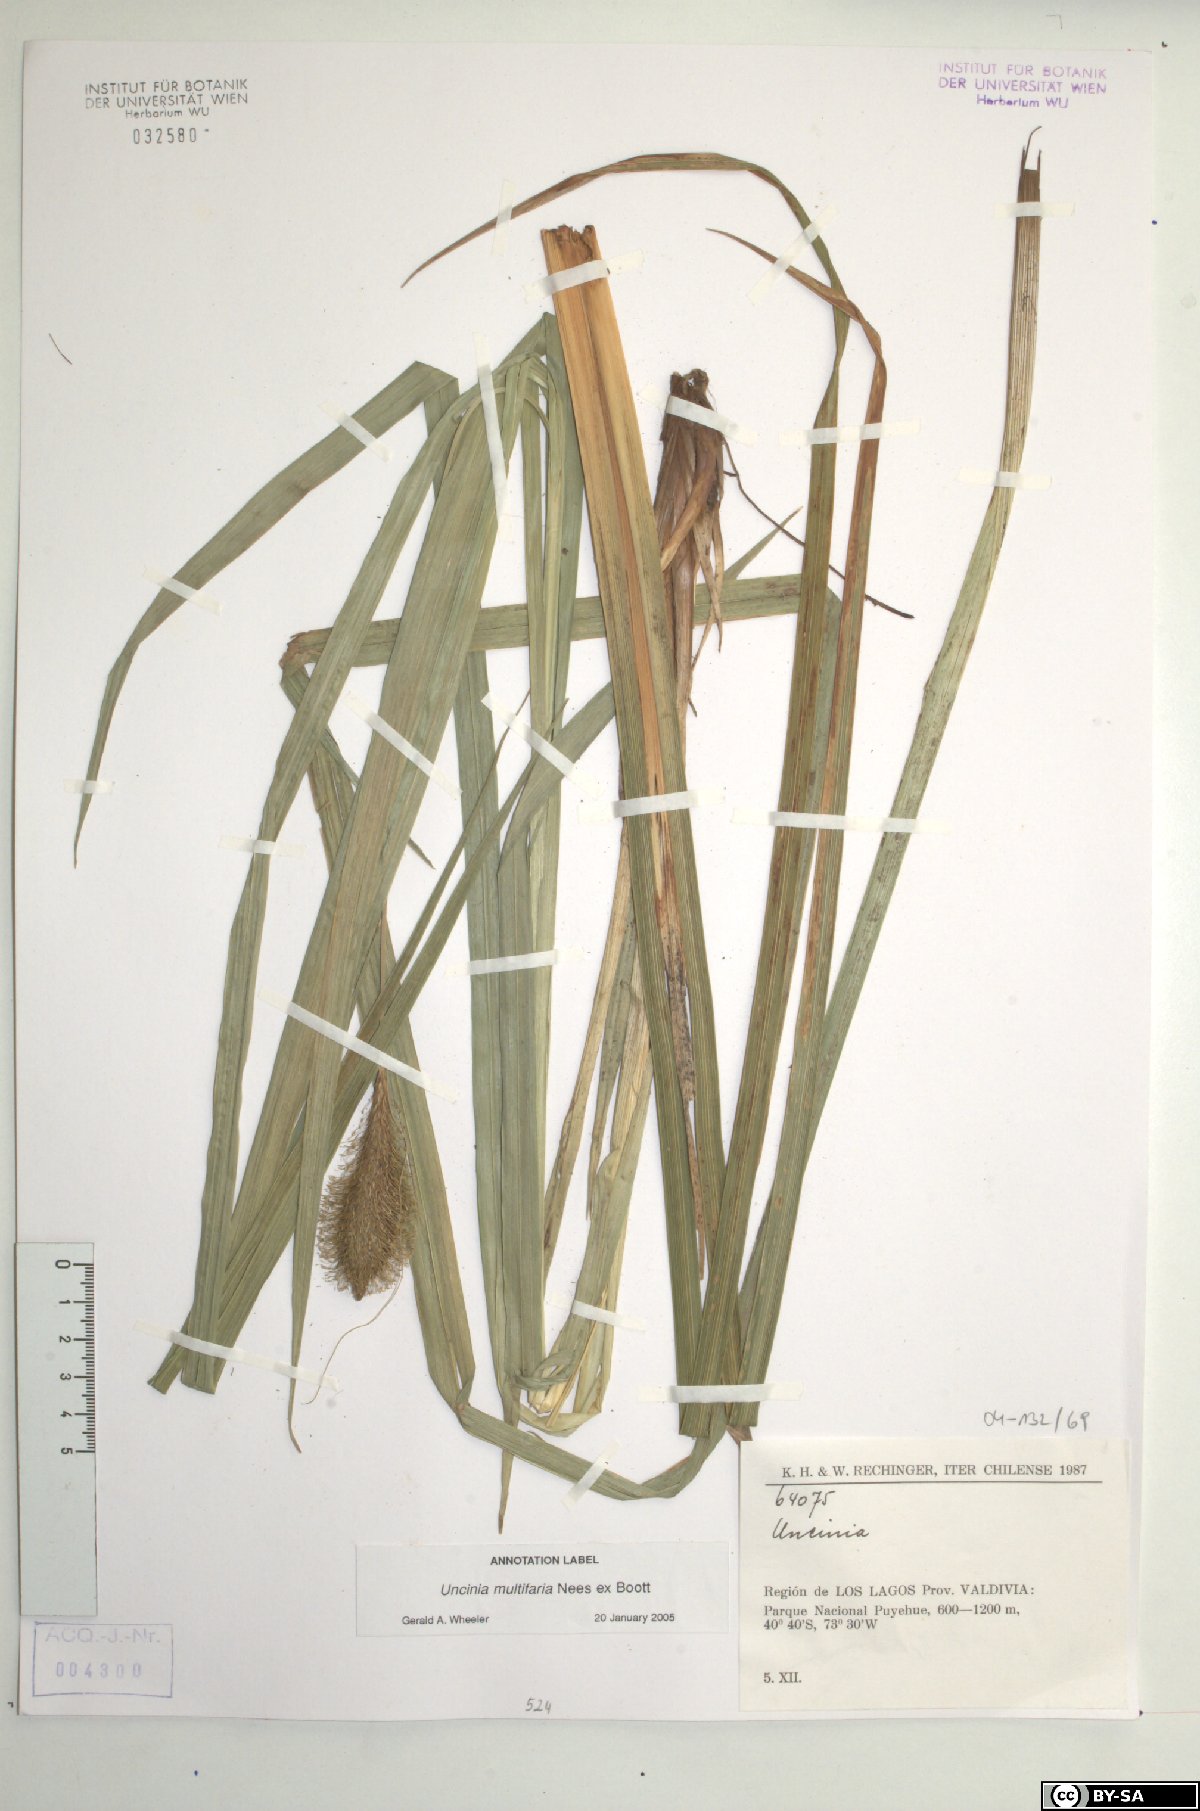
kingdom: Fungi
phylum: Ascomycota
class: Leotiomycetes
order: Helotiales
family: Hamatocanthoscyphaceae
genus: Uncinia
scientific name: Uncinia
